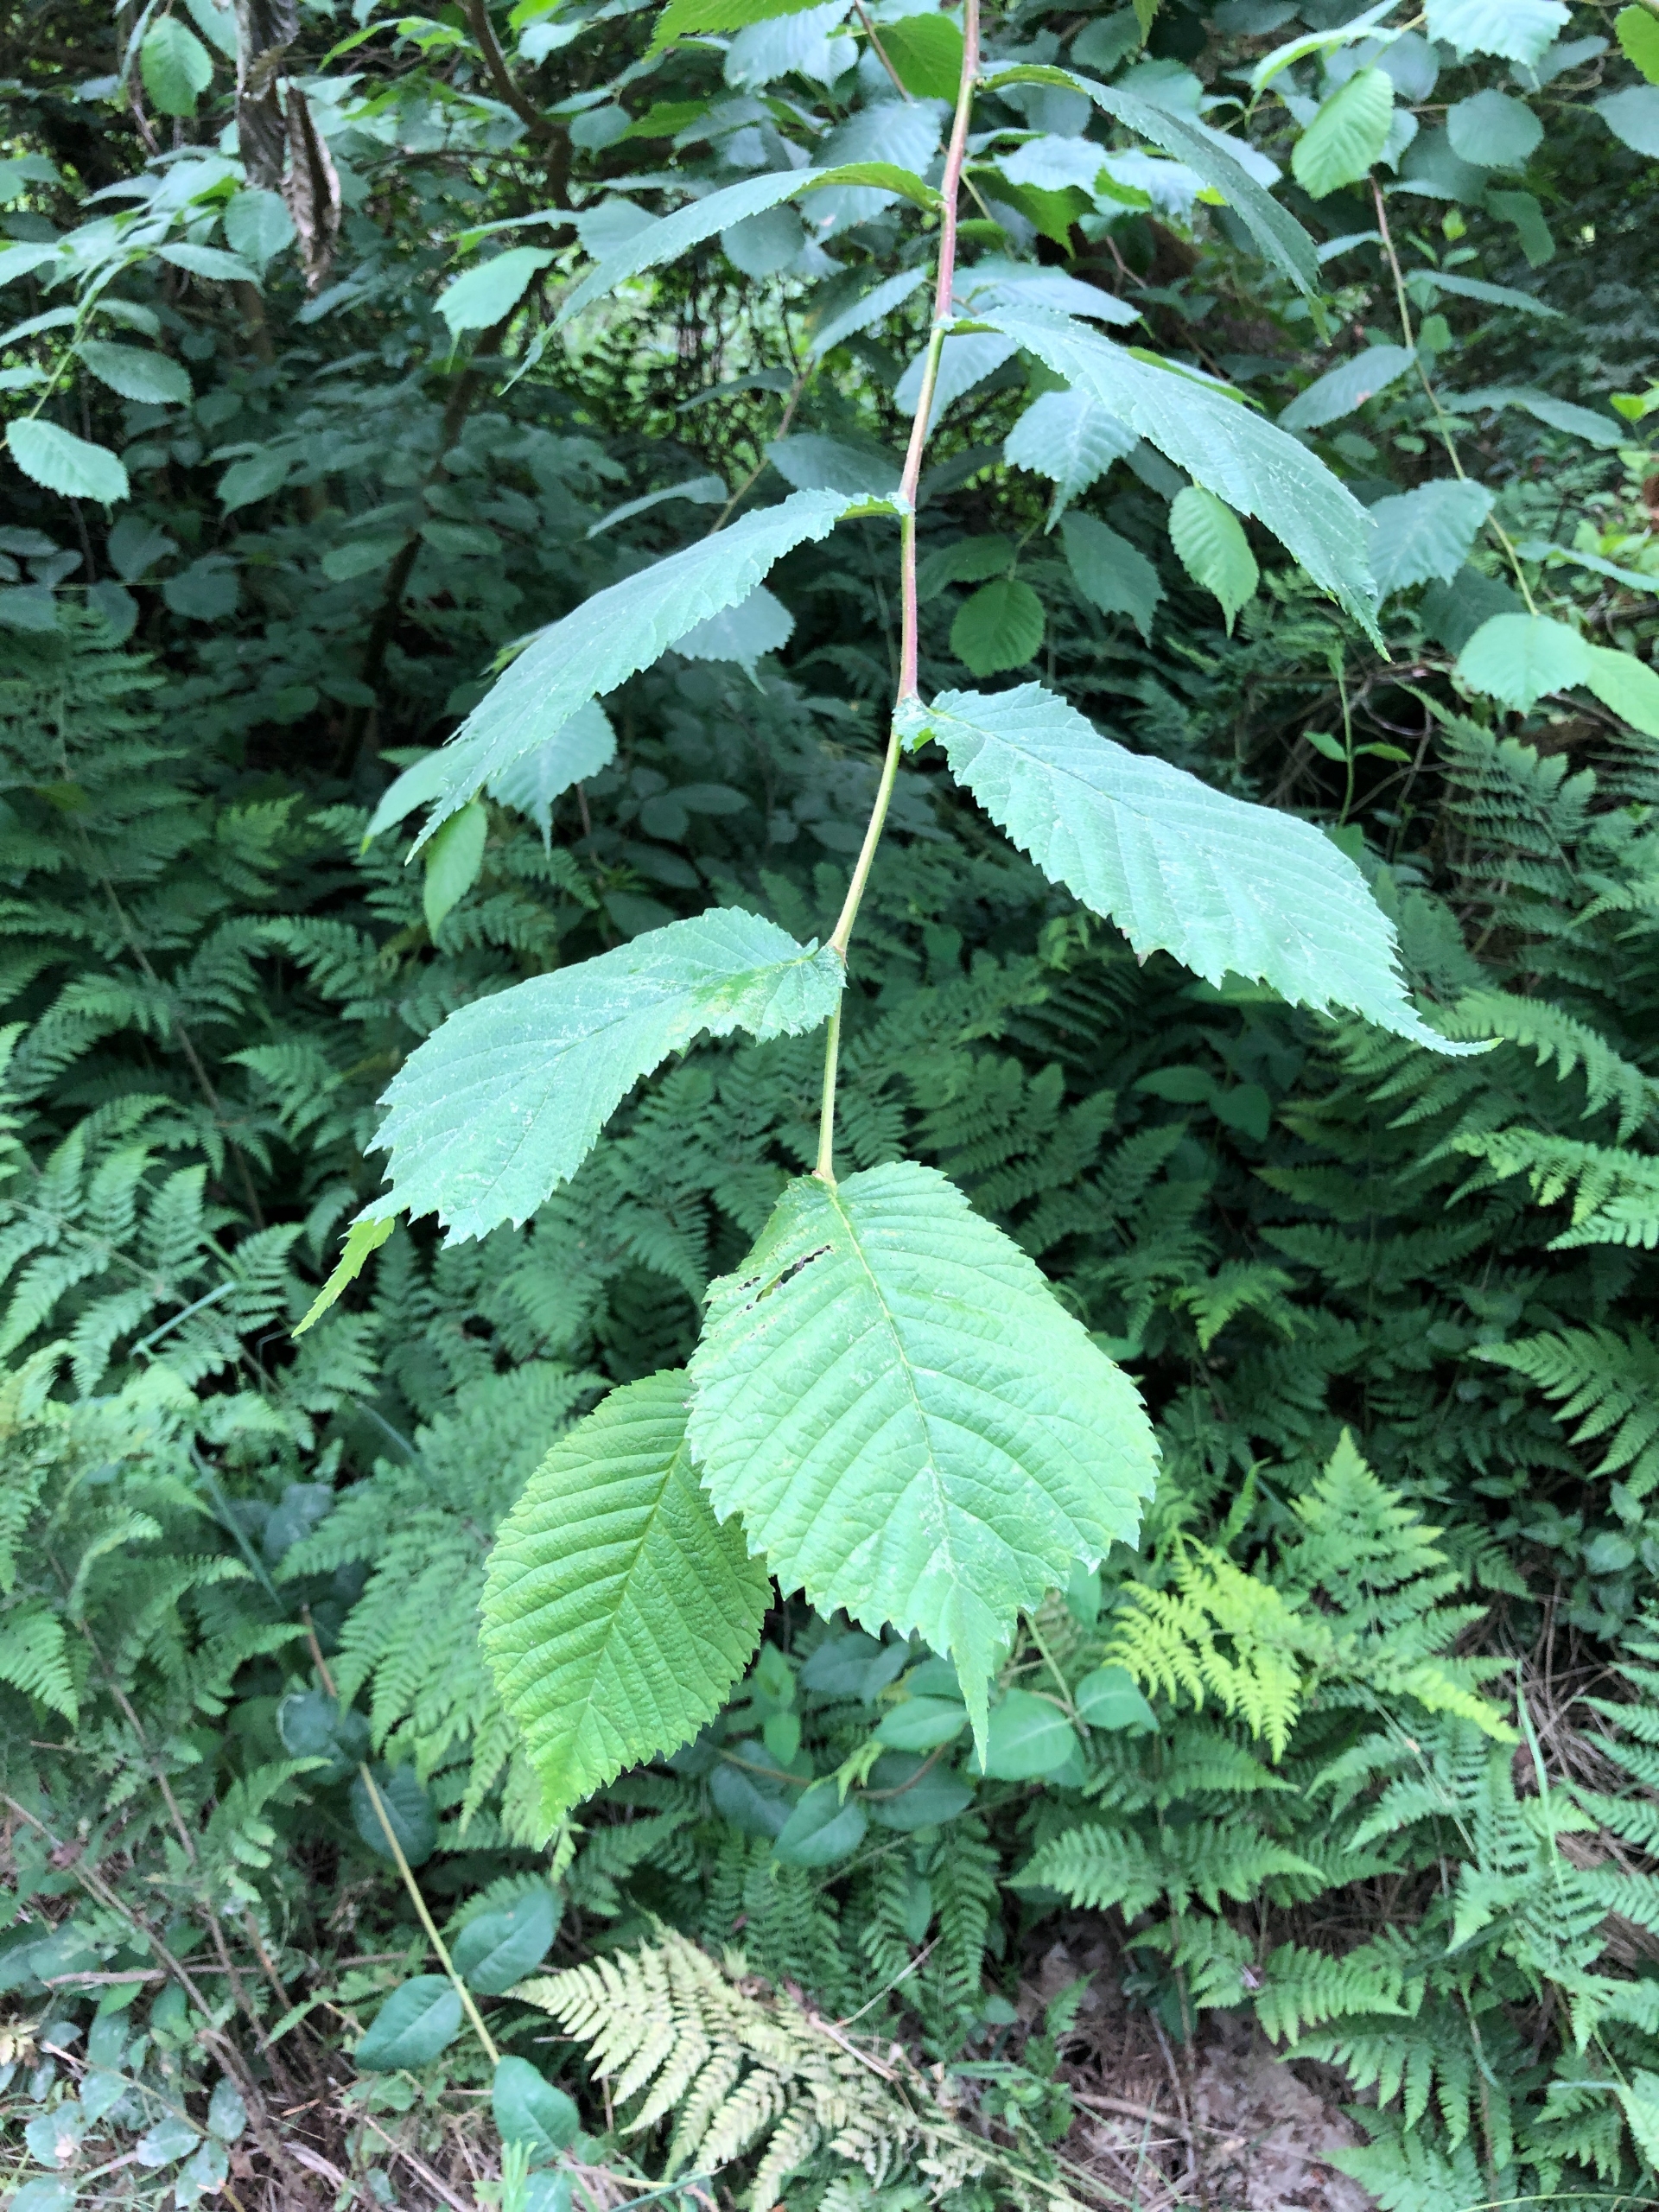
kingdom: Plantae
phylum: Tracheophyta
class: Magnoliopsida
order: Rosales
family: Ulmaceae
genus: Ulmus
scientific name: Ulmus glabra
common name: Skov-elm/storbladet elm
